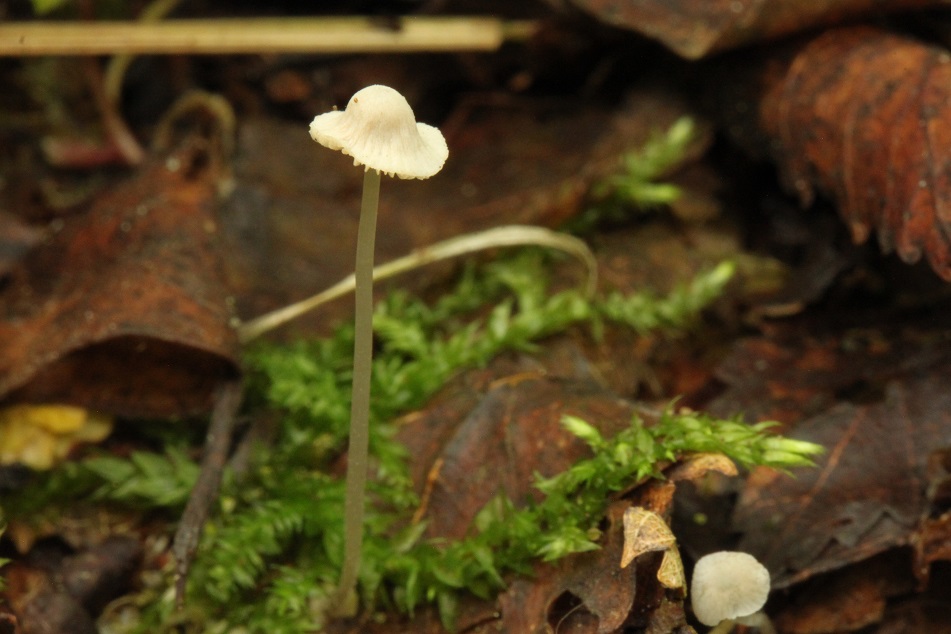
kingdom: Fungi
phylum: Basidiomycota
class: Agaricomycetes
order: Agaricales
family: Mycenaceae
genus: Mycena
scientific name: Mycena stylobates
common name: fureskivet huesvamp
